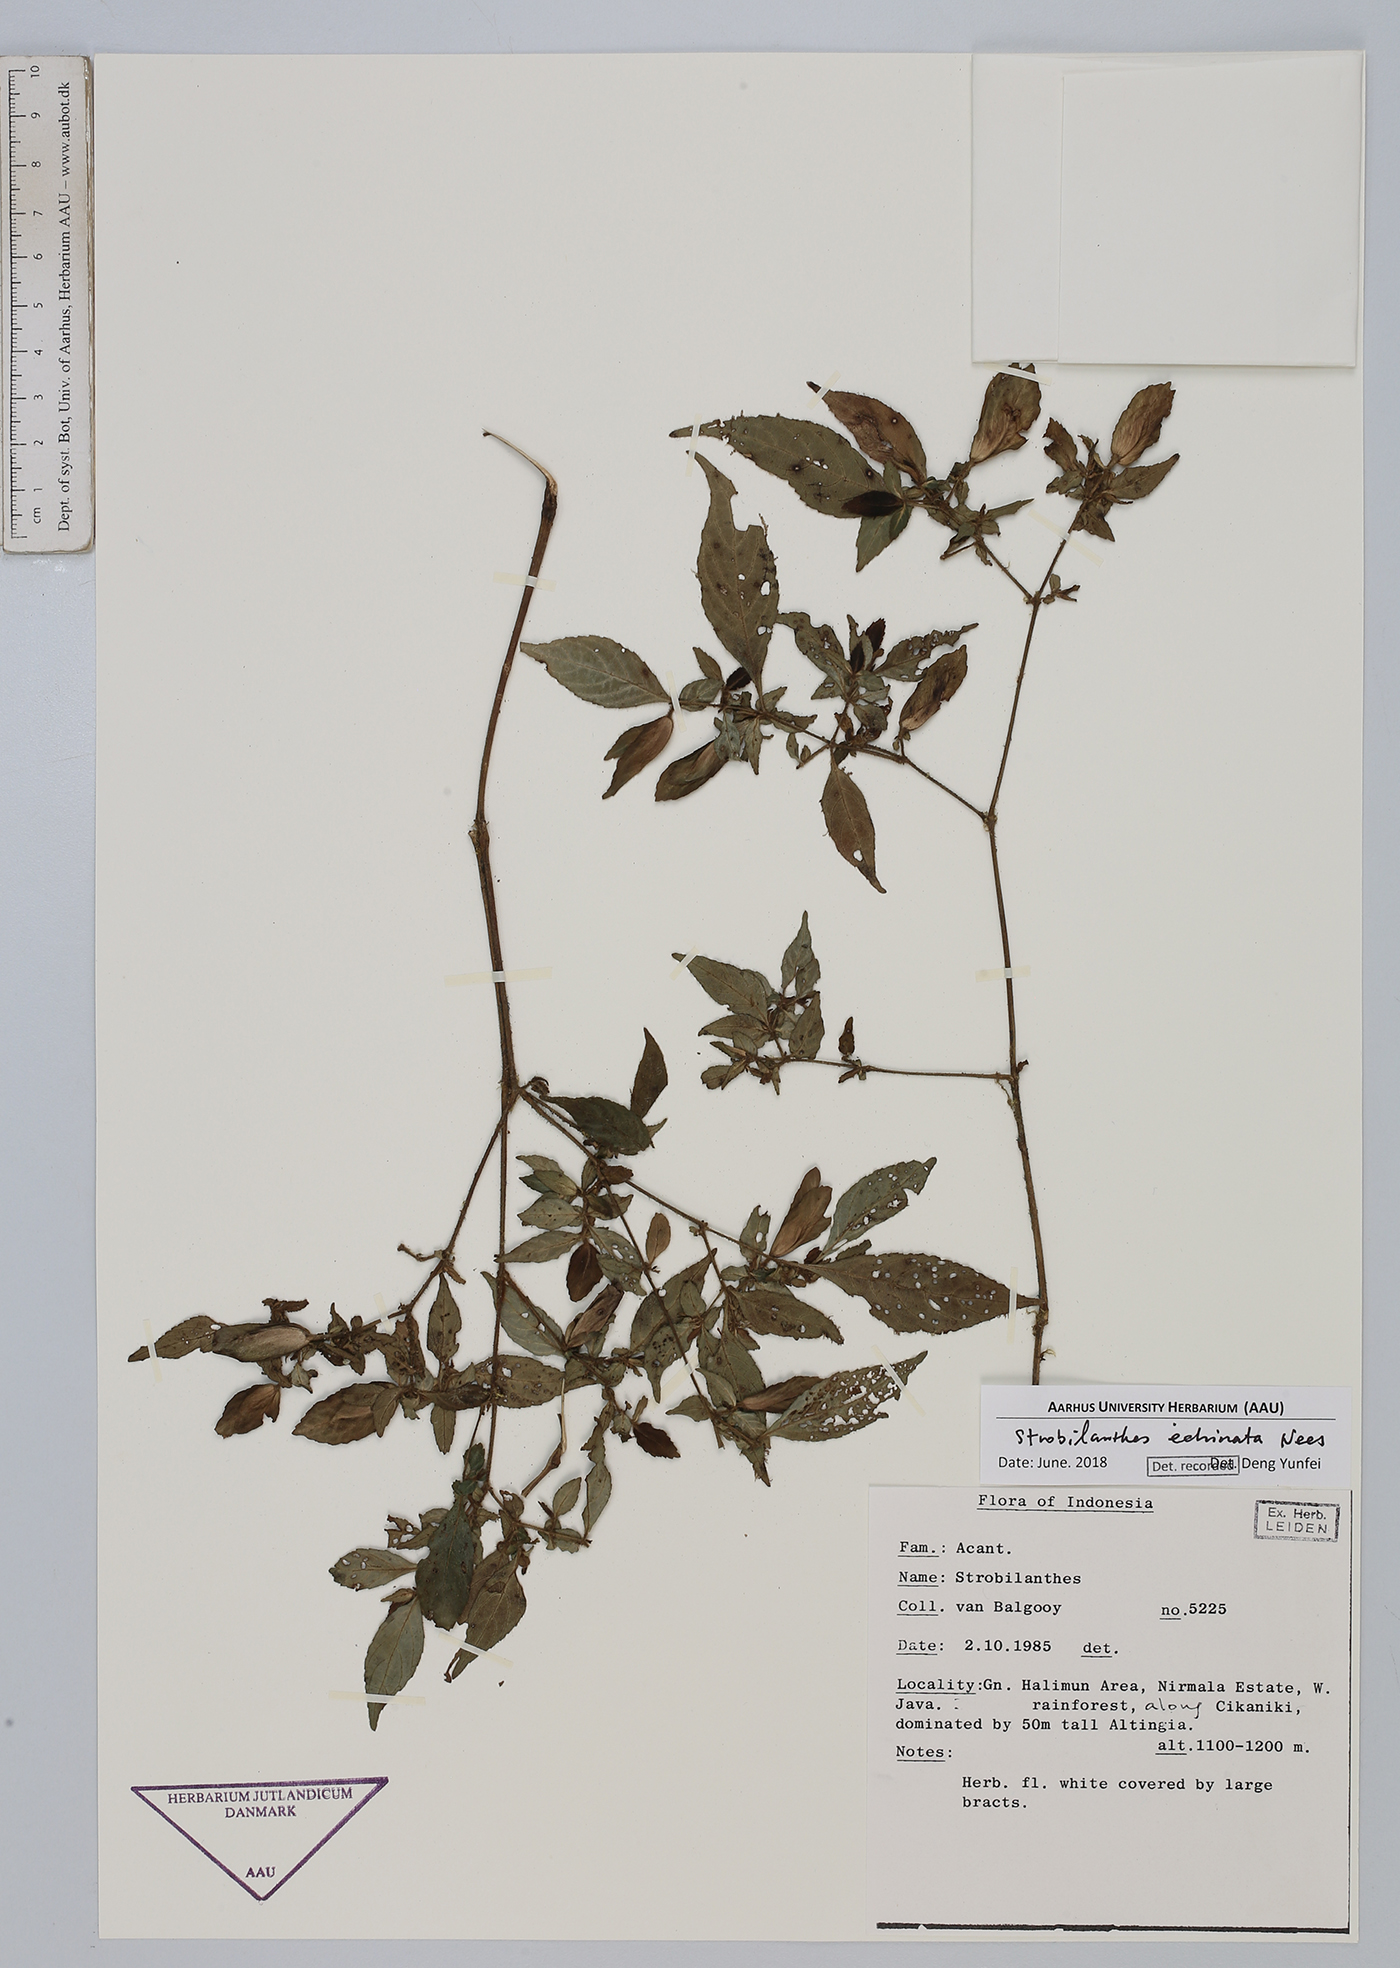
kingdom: Plantae
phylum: Tracheophyta
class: Magnoliopsida
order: Lamiales
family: Acanthaceae
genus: Strobilanthes
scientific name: Strobilanthes echinata
